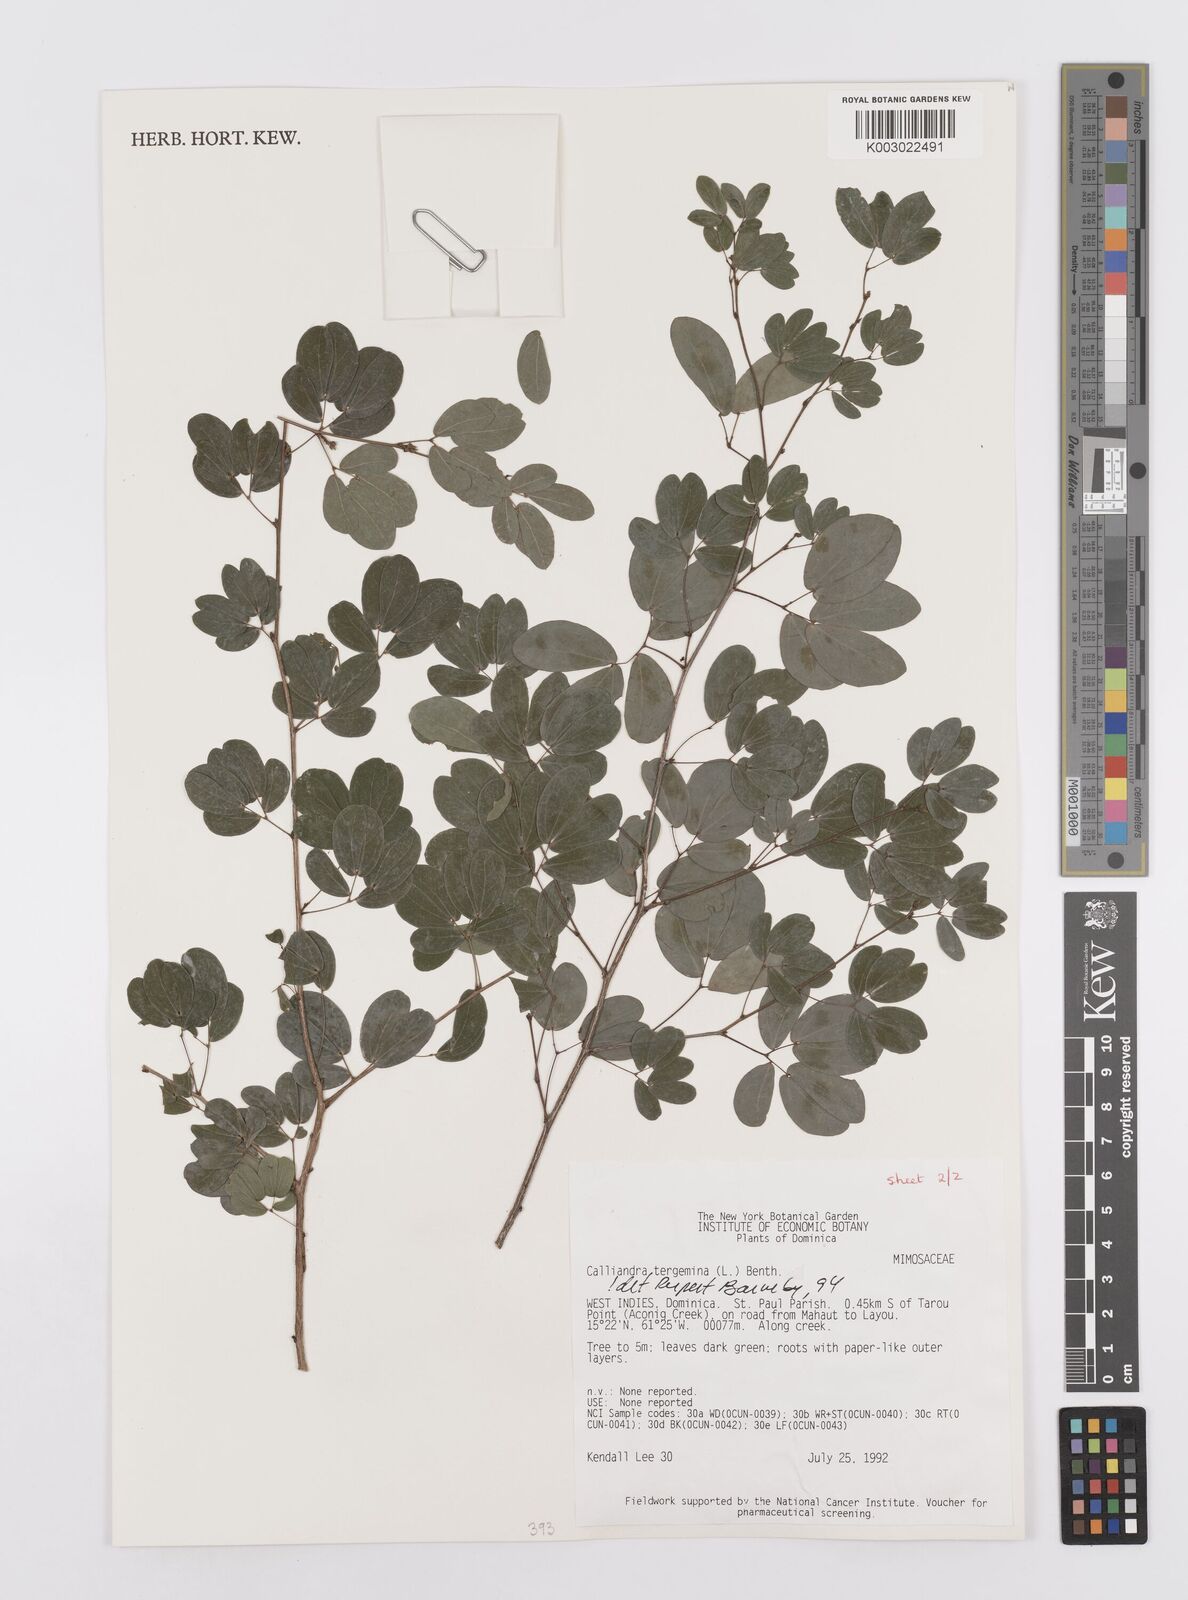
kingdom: Plantae
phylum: Tracheophyta
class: Magnoliopsida
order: Fabales
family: Fabaceae
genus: Calliandra
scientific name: Calliandra tergemina
